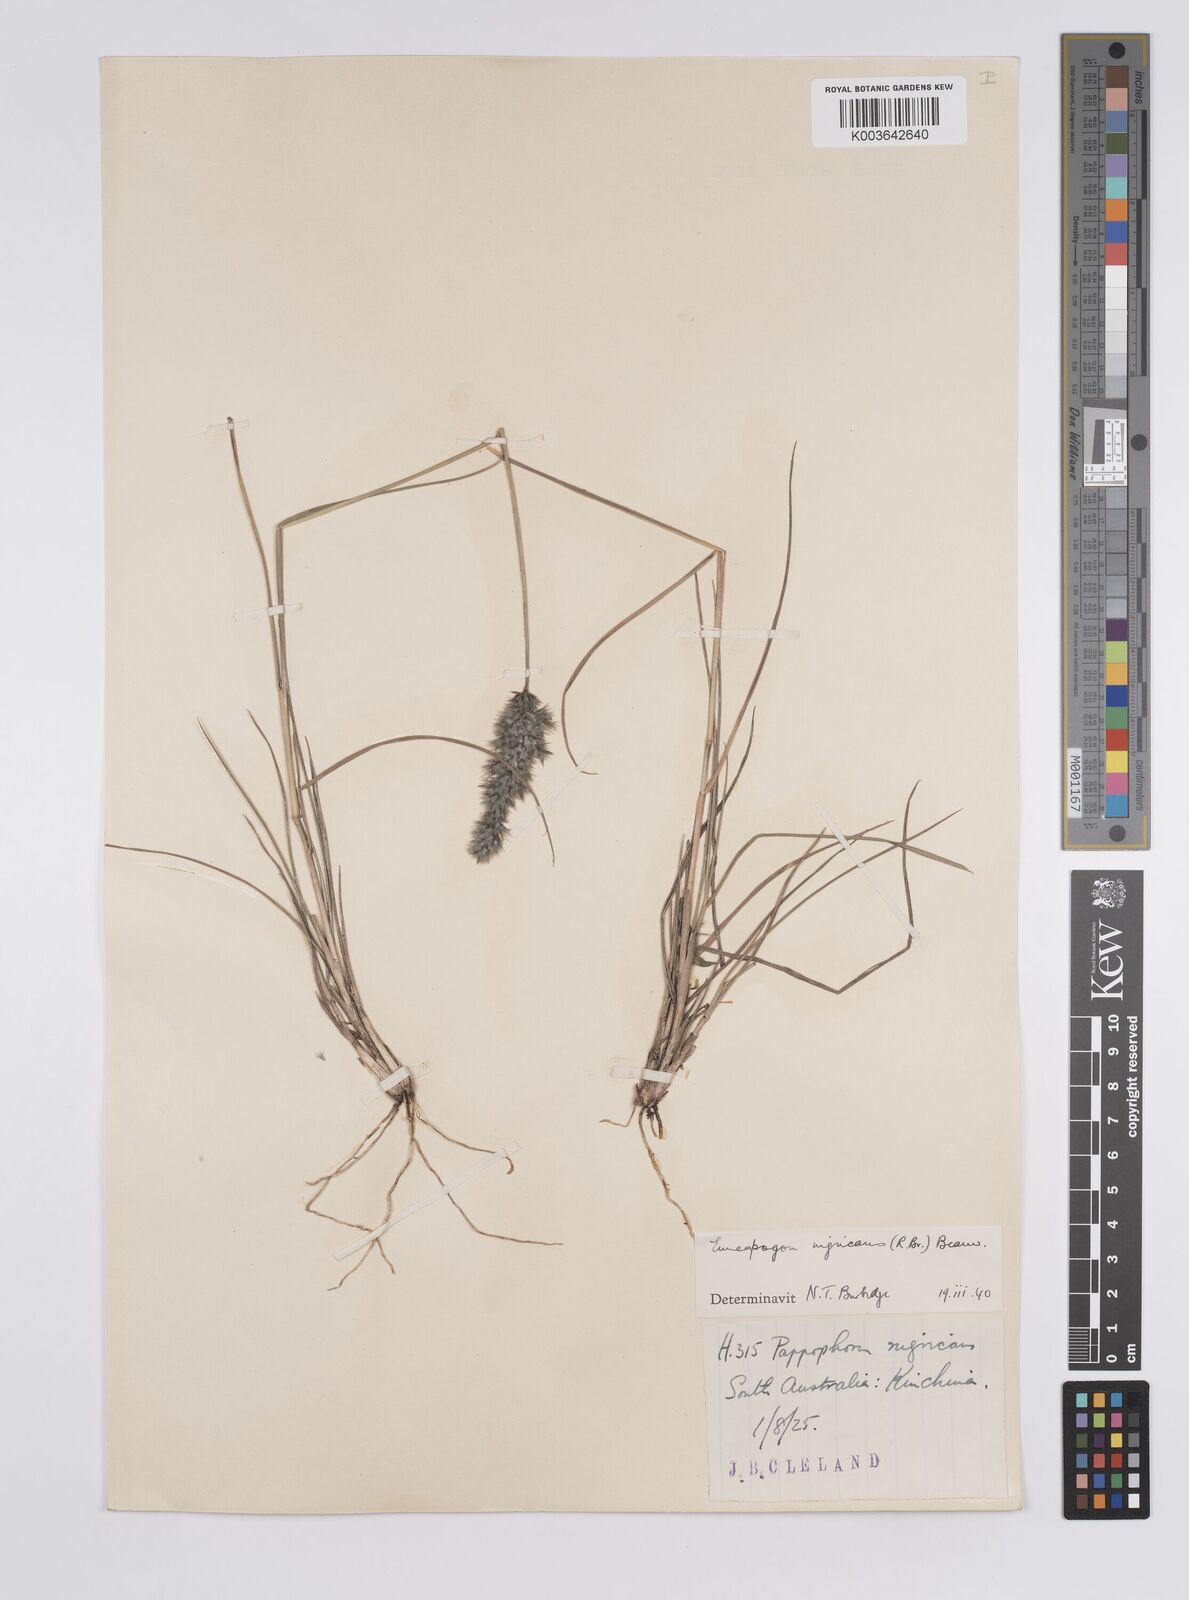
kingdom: Plantae
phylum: Tracheophyta
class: Liliopsida
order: Poales
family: Poaceae
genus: Enneapogon
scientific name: Enneapogon nigricans
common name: Pappus grass
